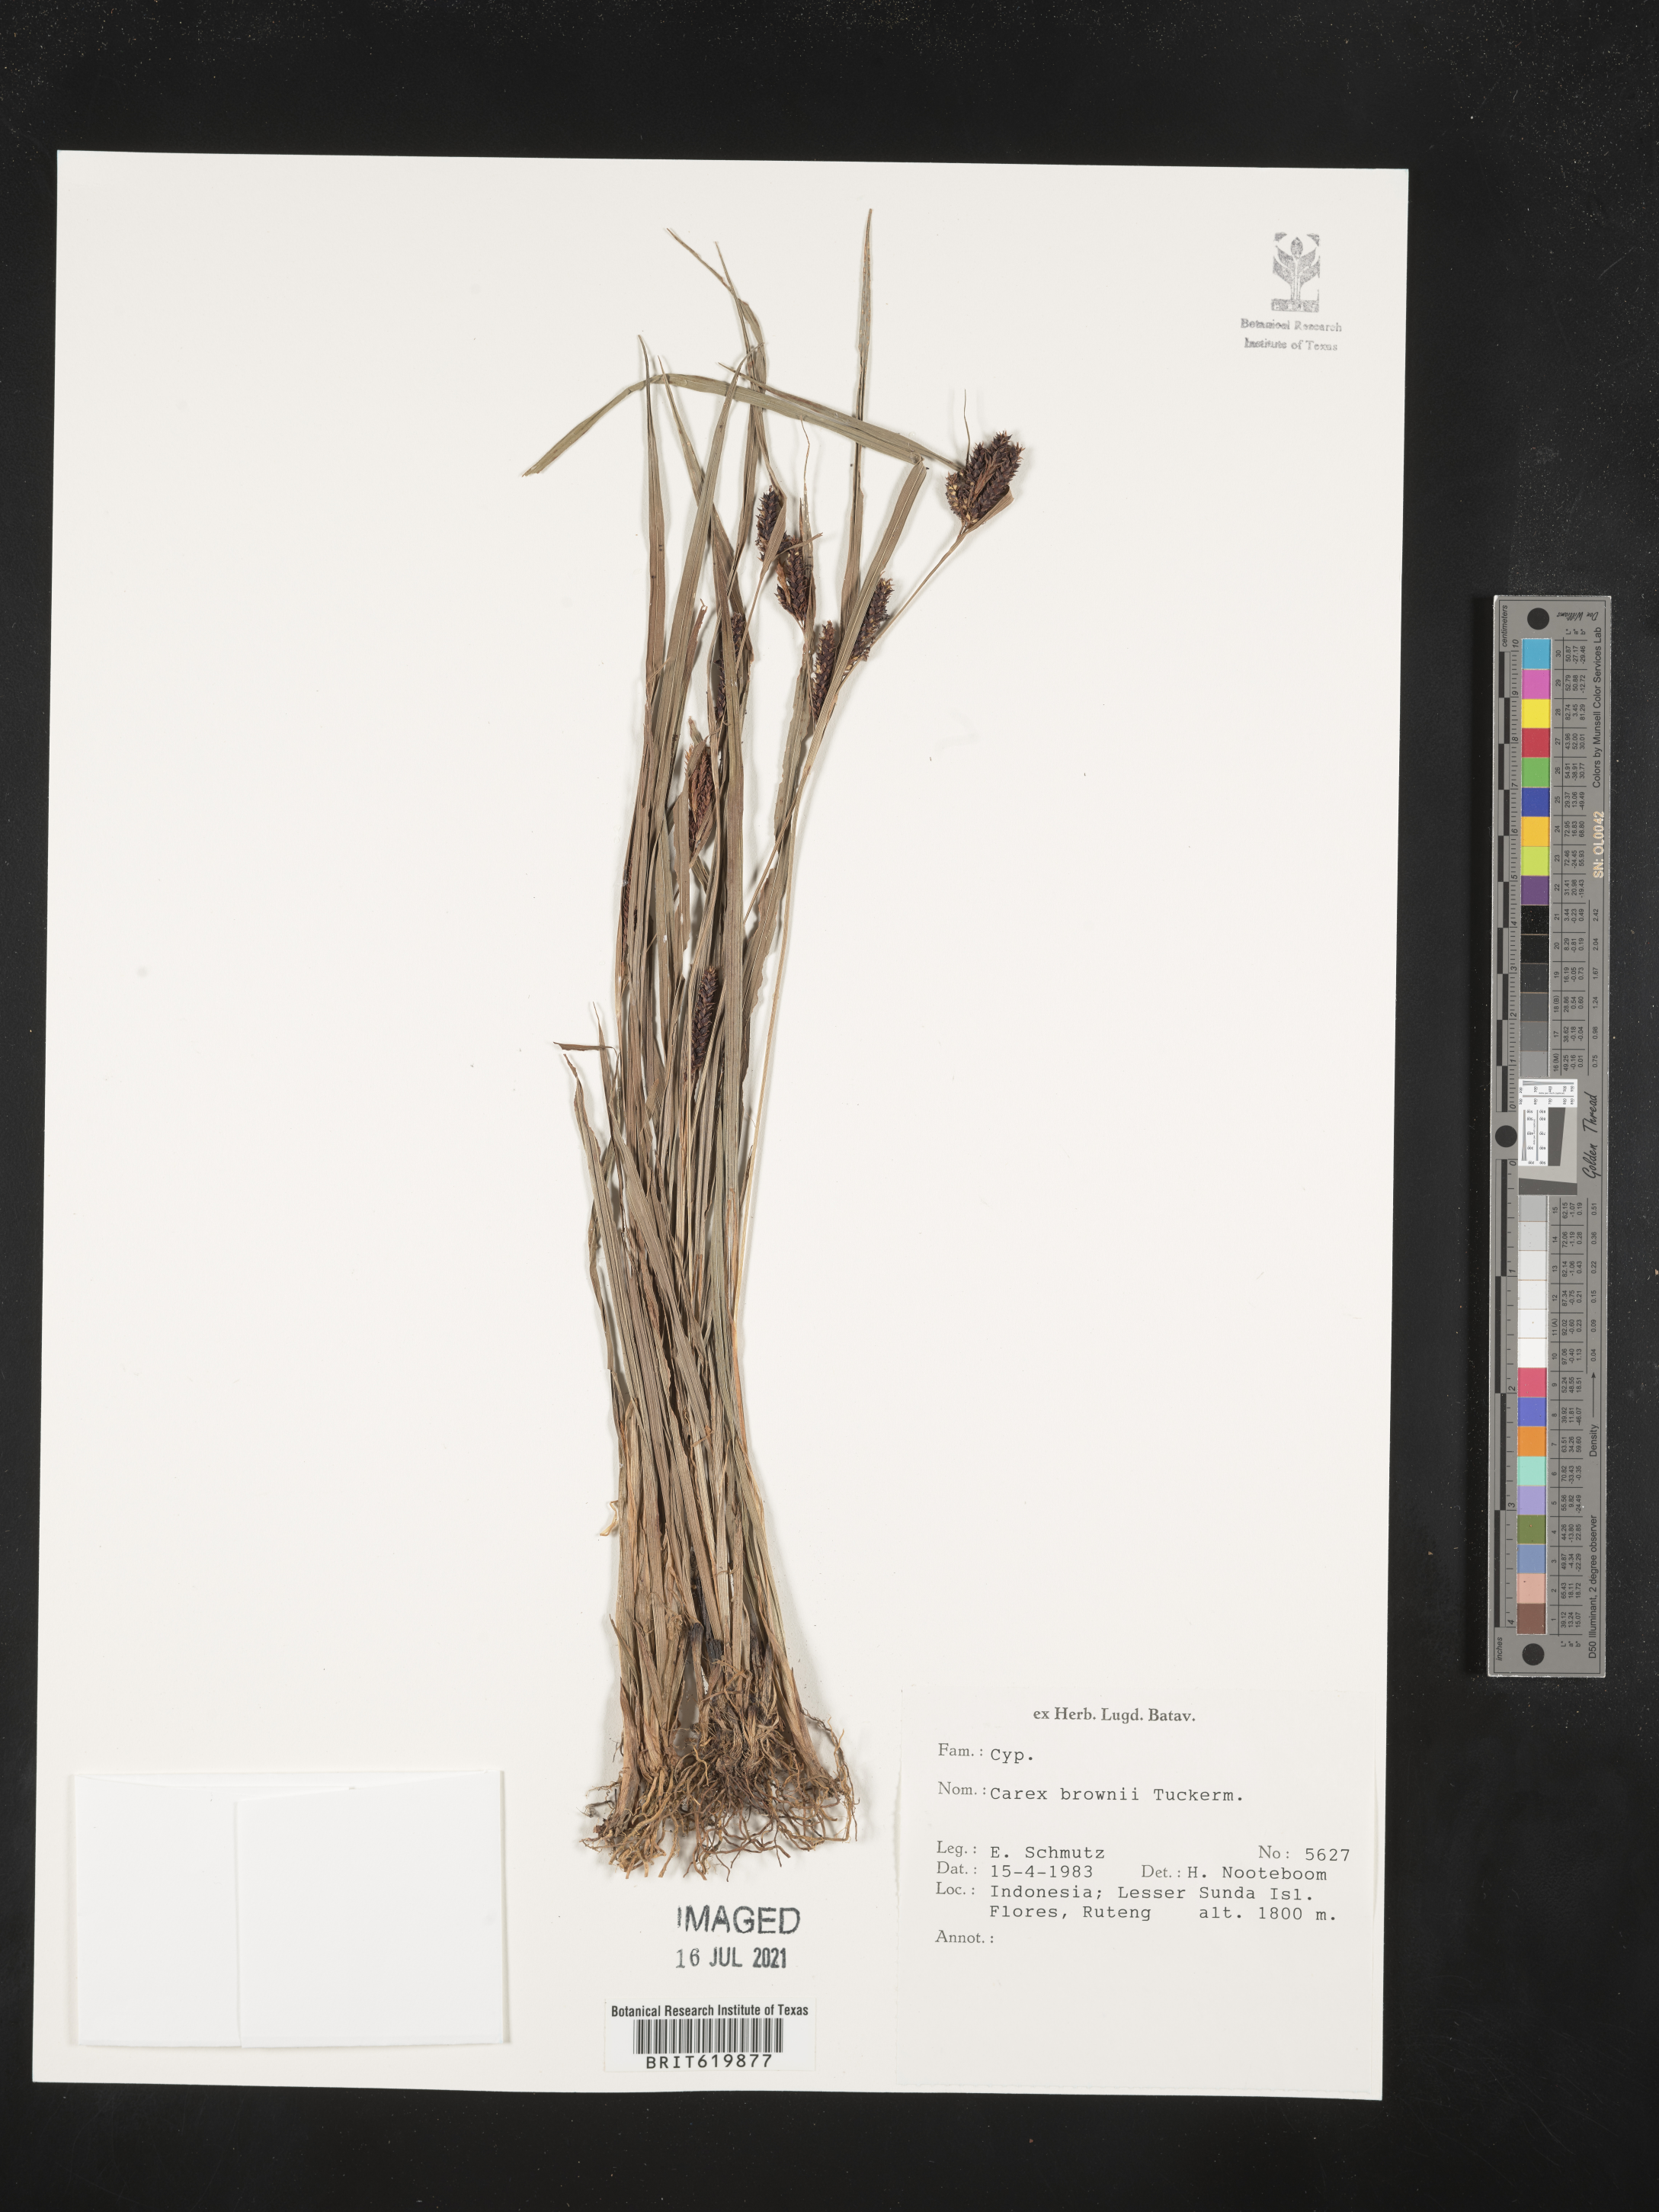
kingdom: Plantae
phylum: Tracheophyta
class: Liliopsida
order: Poales
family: Cyperaceae
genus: Carex
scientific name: Carex brownii
